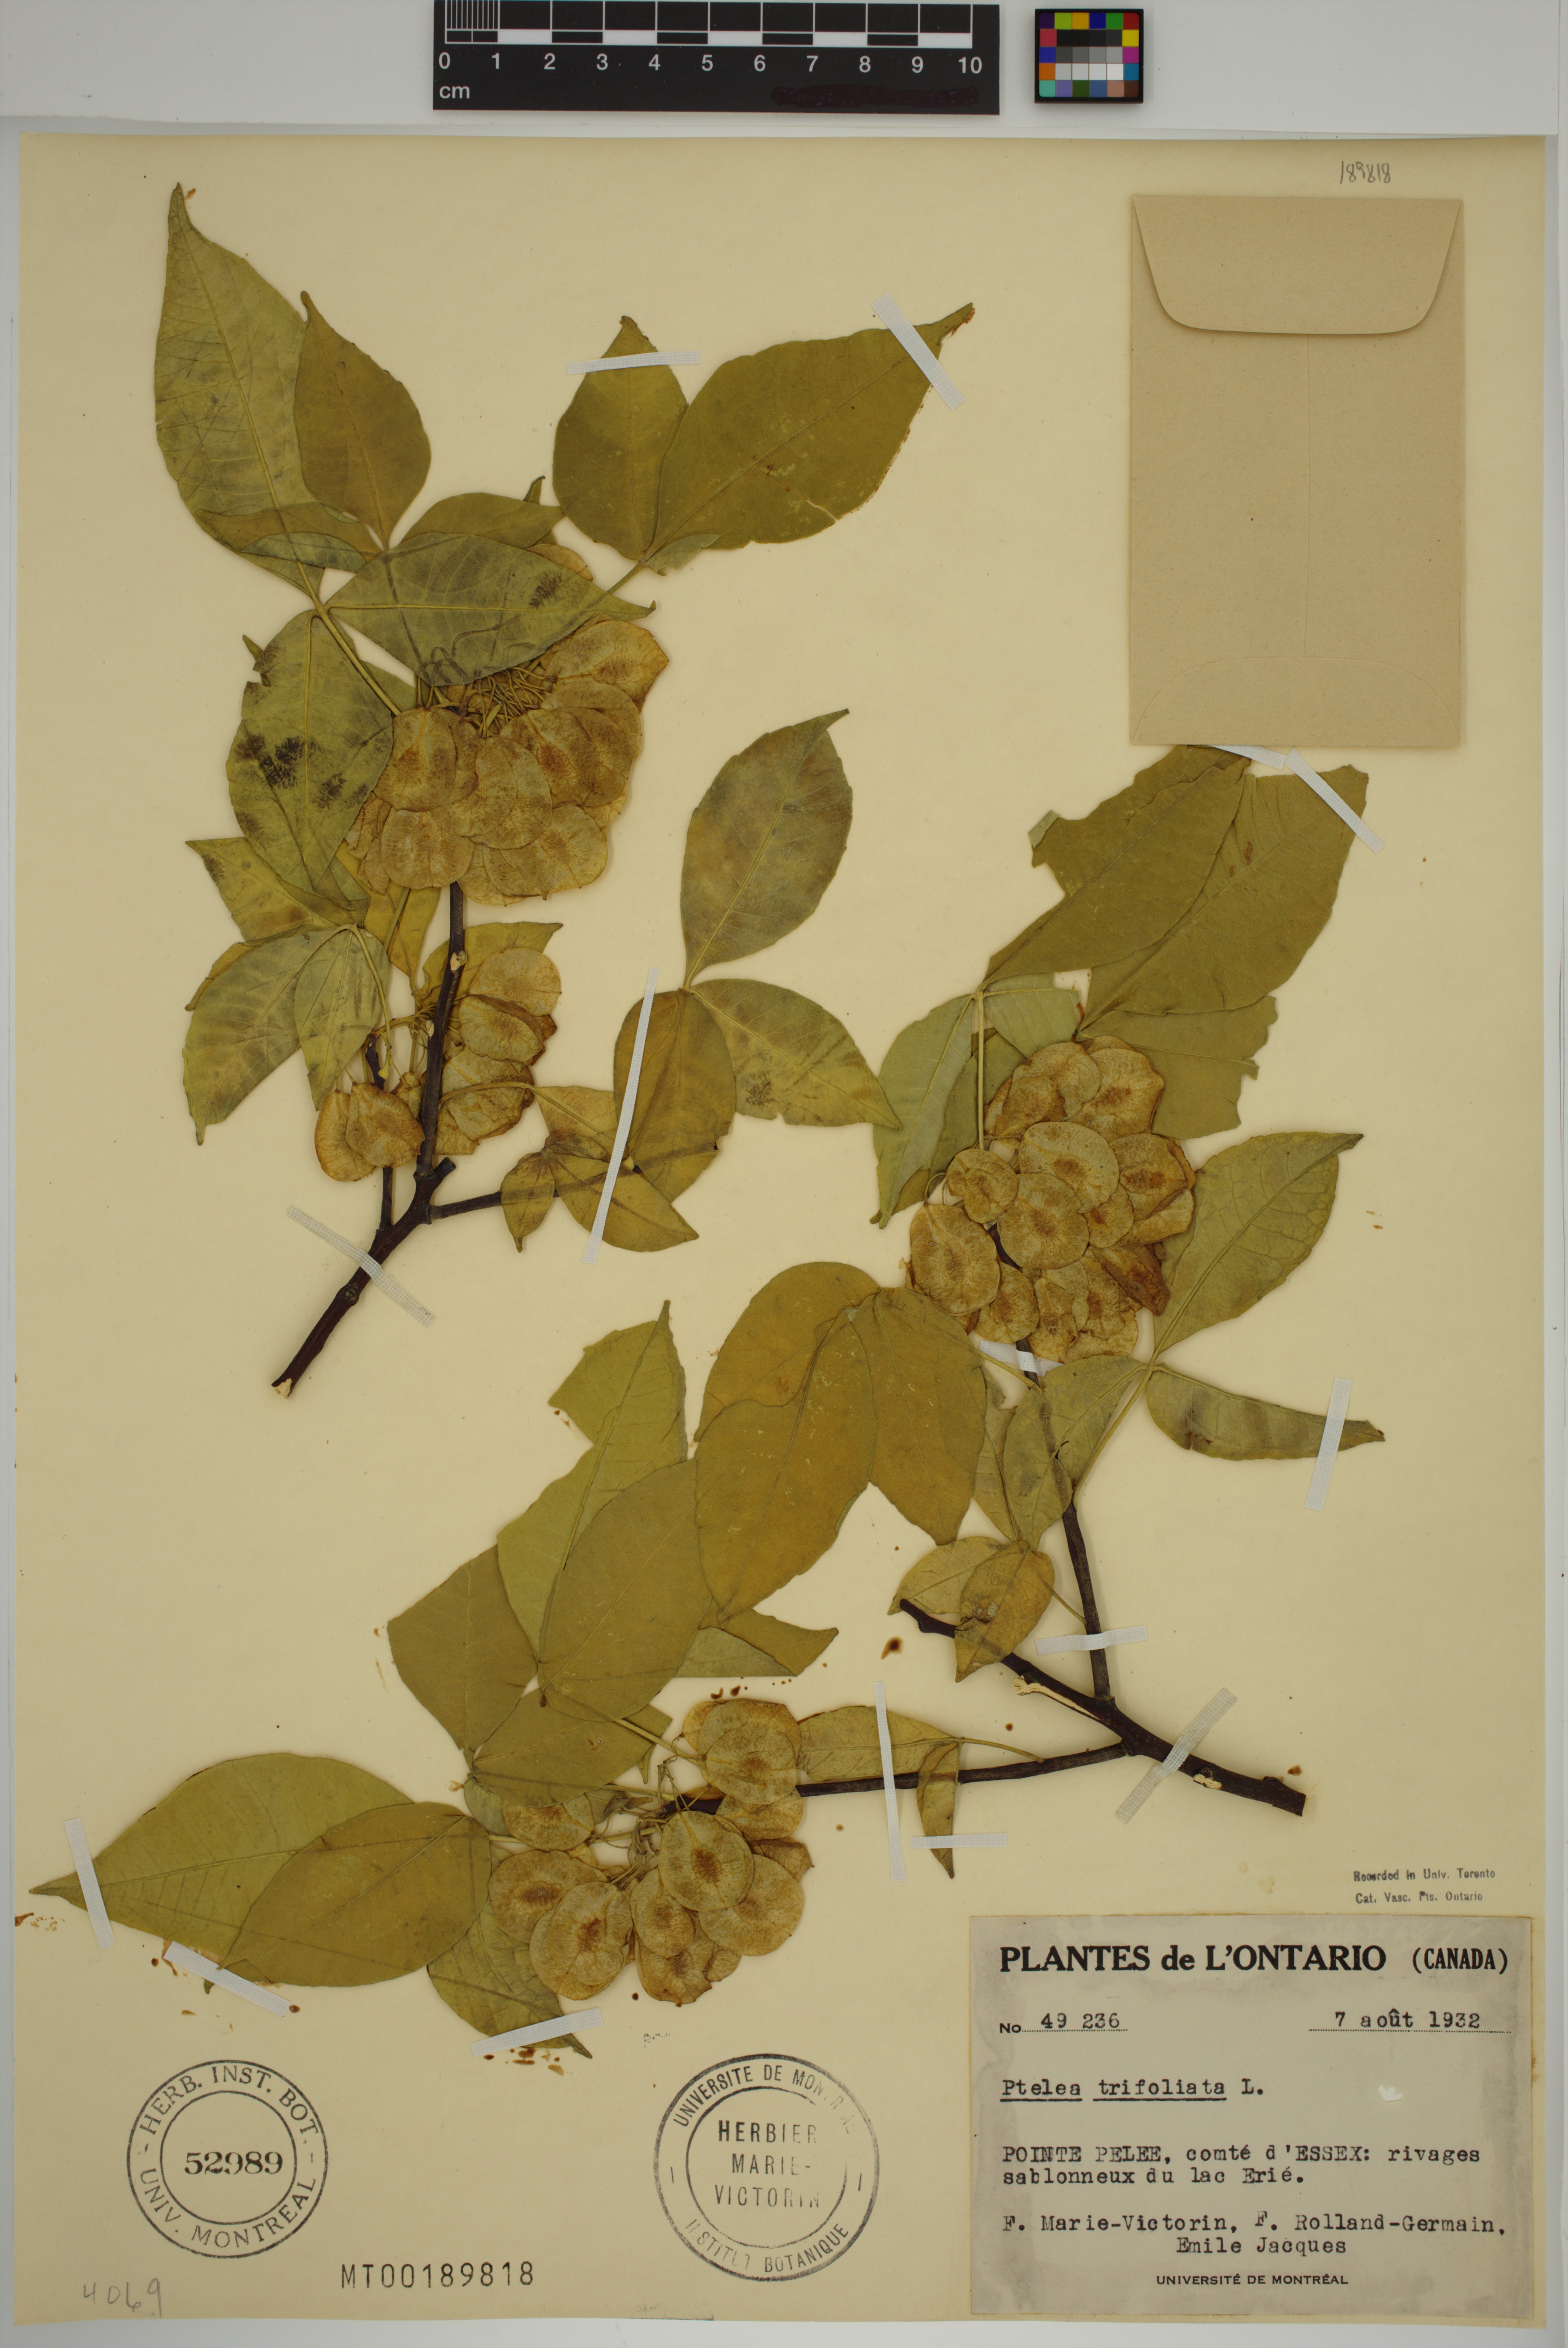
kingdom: Plantae
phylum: Tracheophyta
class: Magnoliopsida
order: Sapindales
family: Rutaceae
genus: Ptelea
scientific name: Ptelea trifoliata
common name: Common hop-tree
